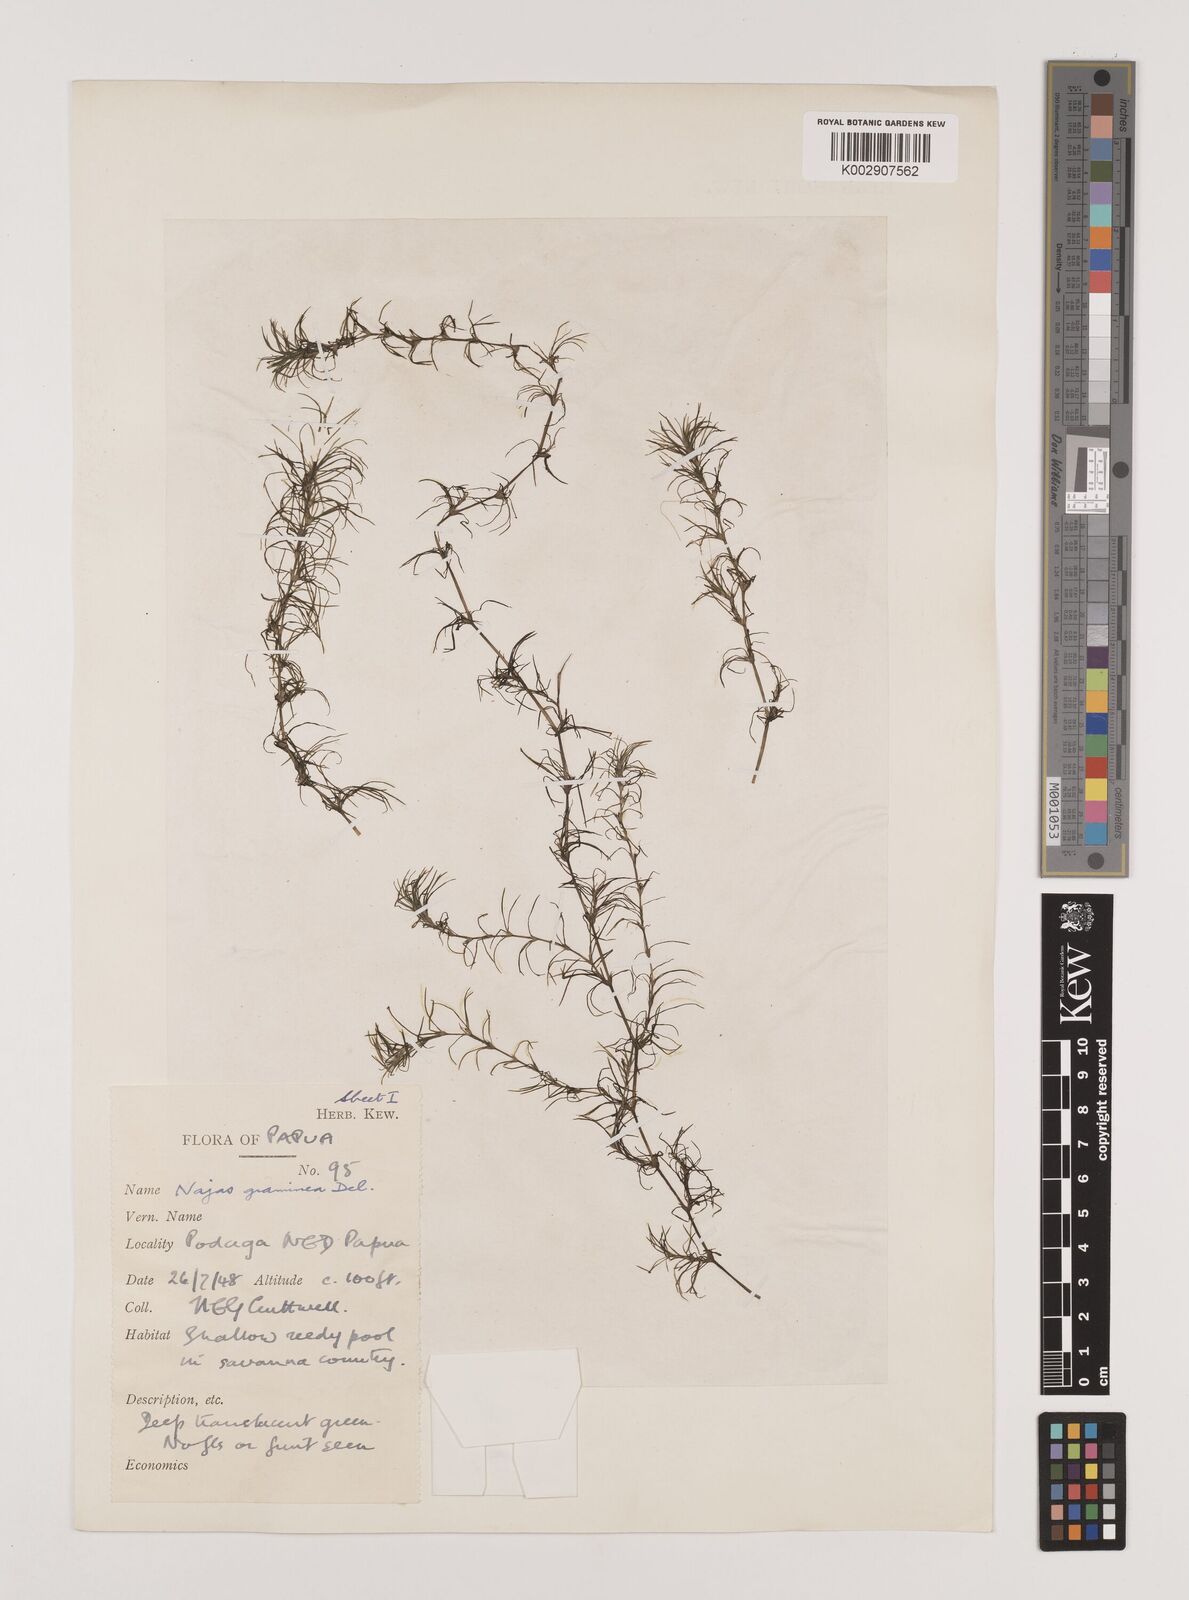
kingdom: Plantae
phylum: Tracheophyta
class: Liliopsida
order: Alismatales
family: Hydrocharitaceae
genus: Najas
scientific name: Najas graminea
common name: Ricefield waternymph
